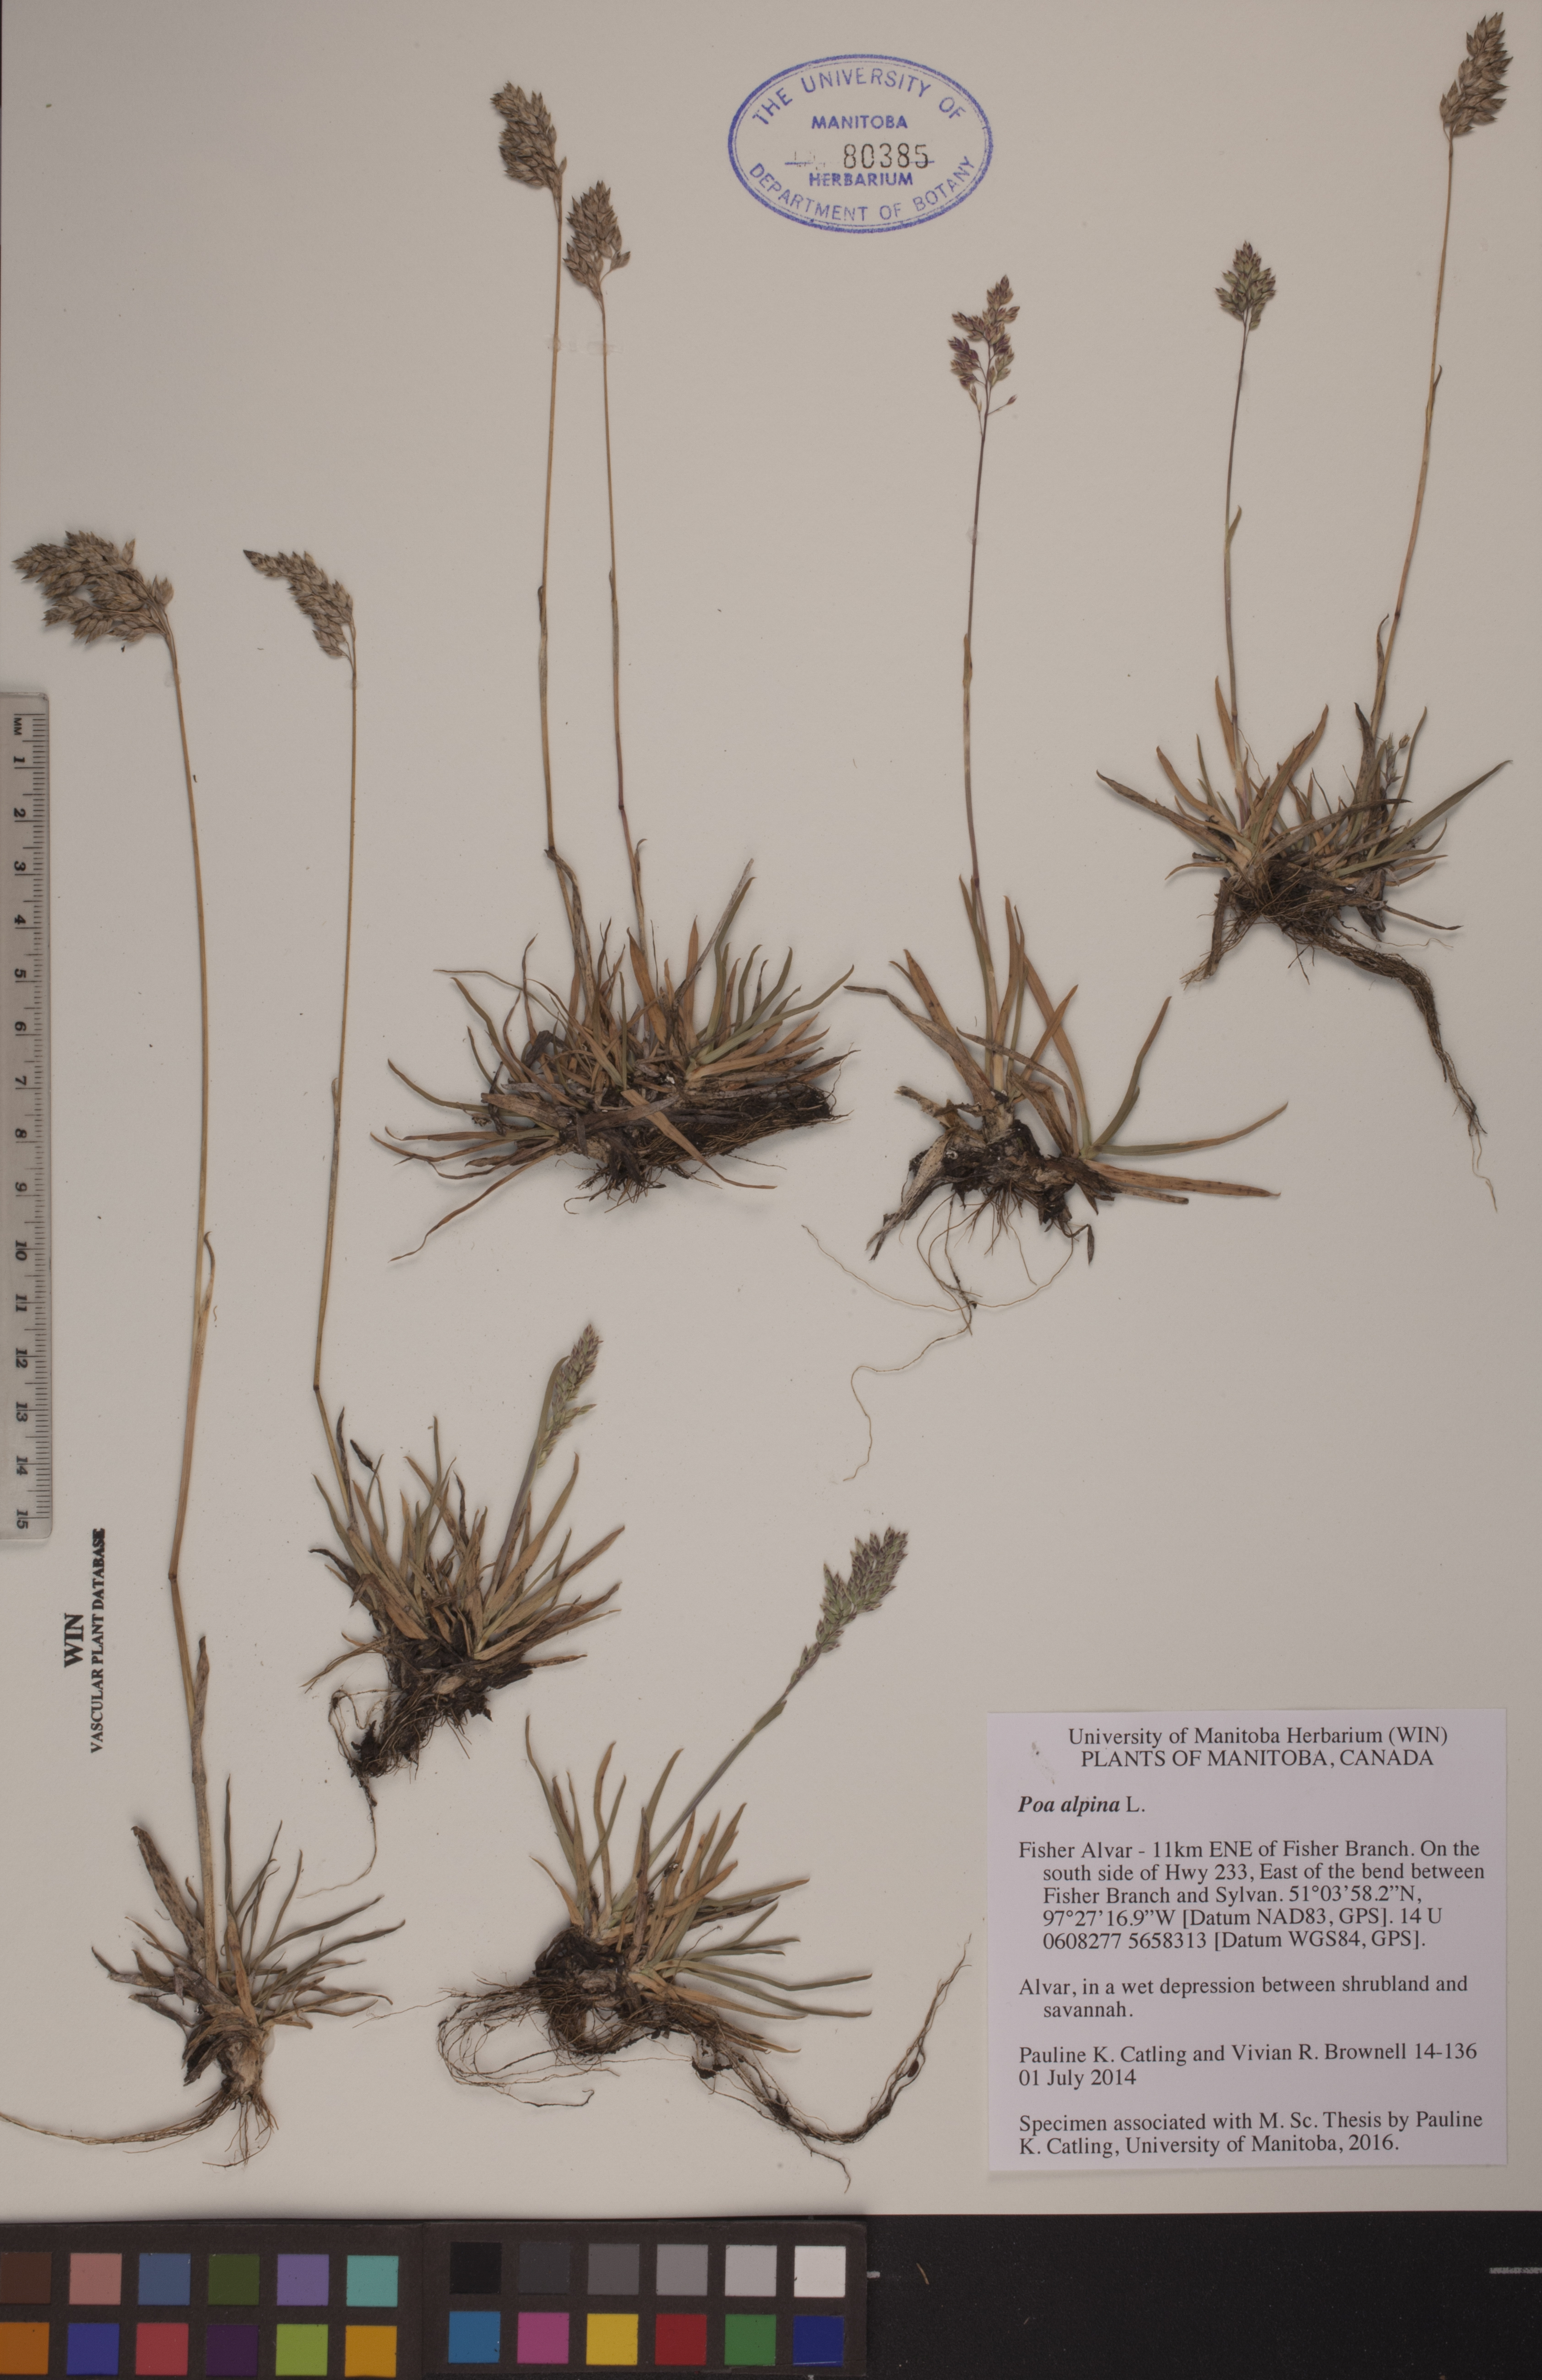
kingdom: Plantae
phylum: Tracheophyta
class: Liliopsida
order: Poales
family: Poaceae
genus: Poa
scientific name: Poa alpina
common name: Alpine bluegrass
